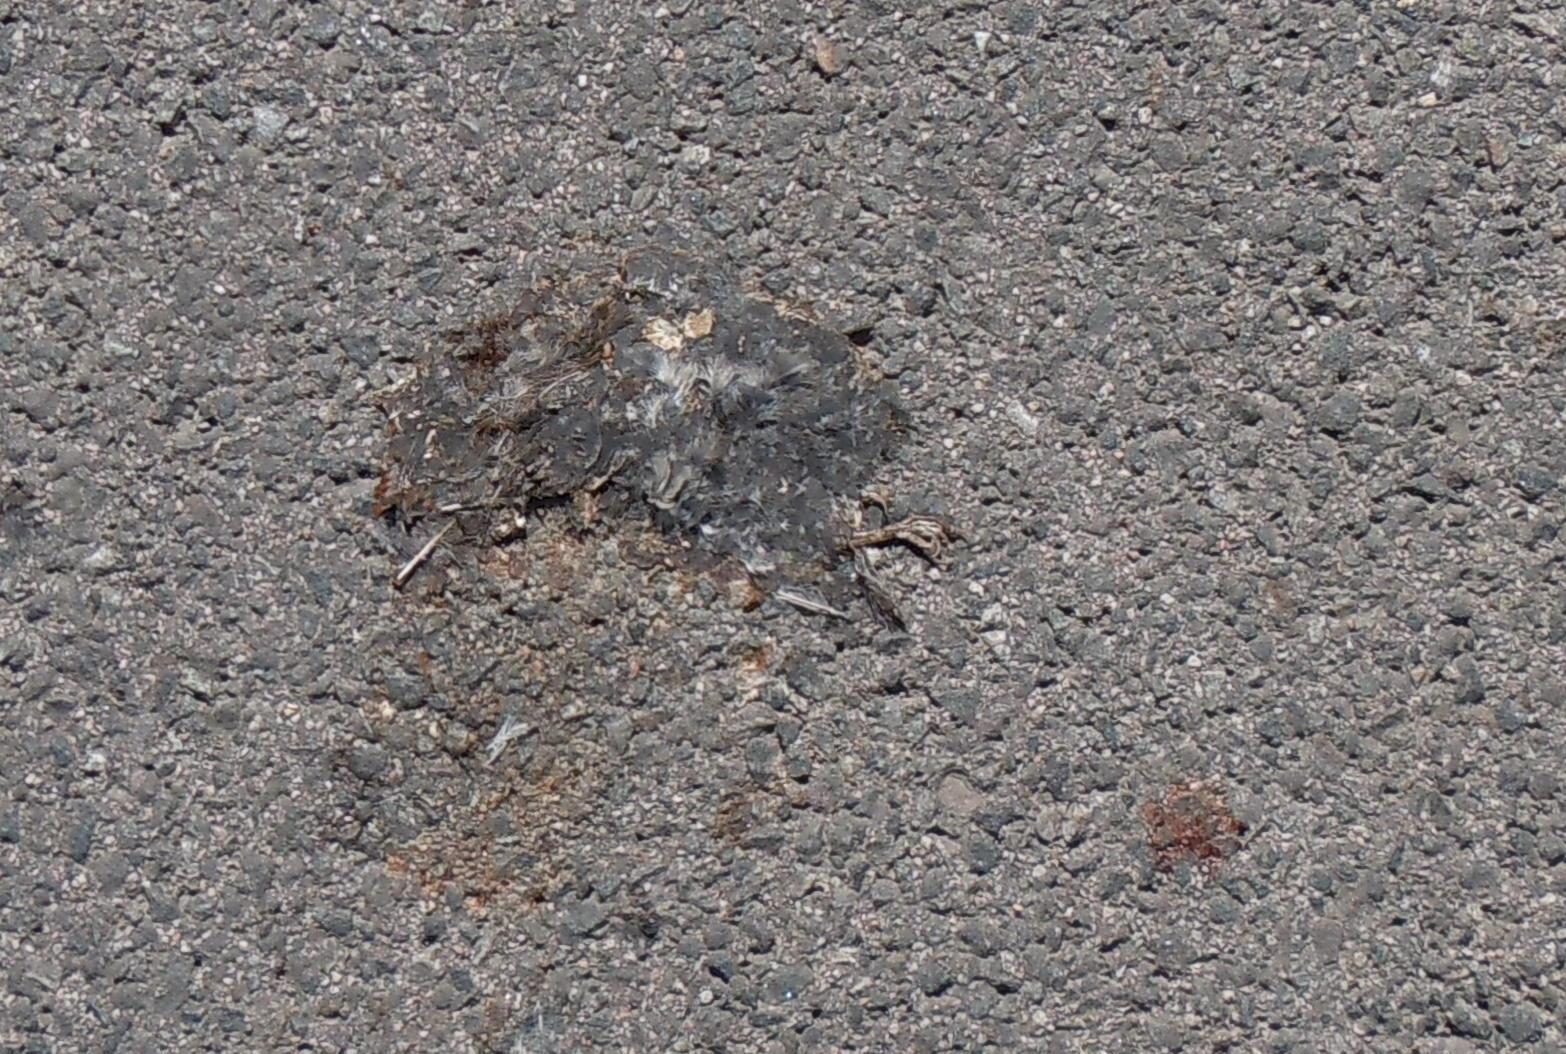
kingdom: Animalia
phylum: Chordata
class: Aves
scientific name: Aves
